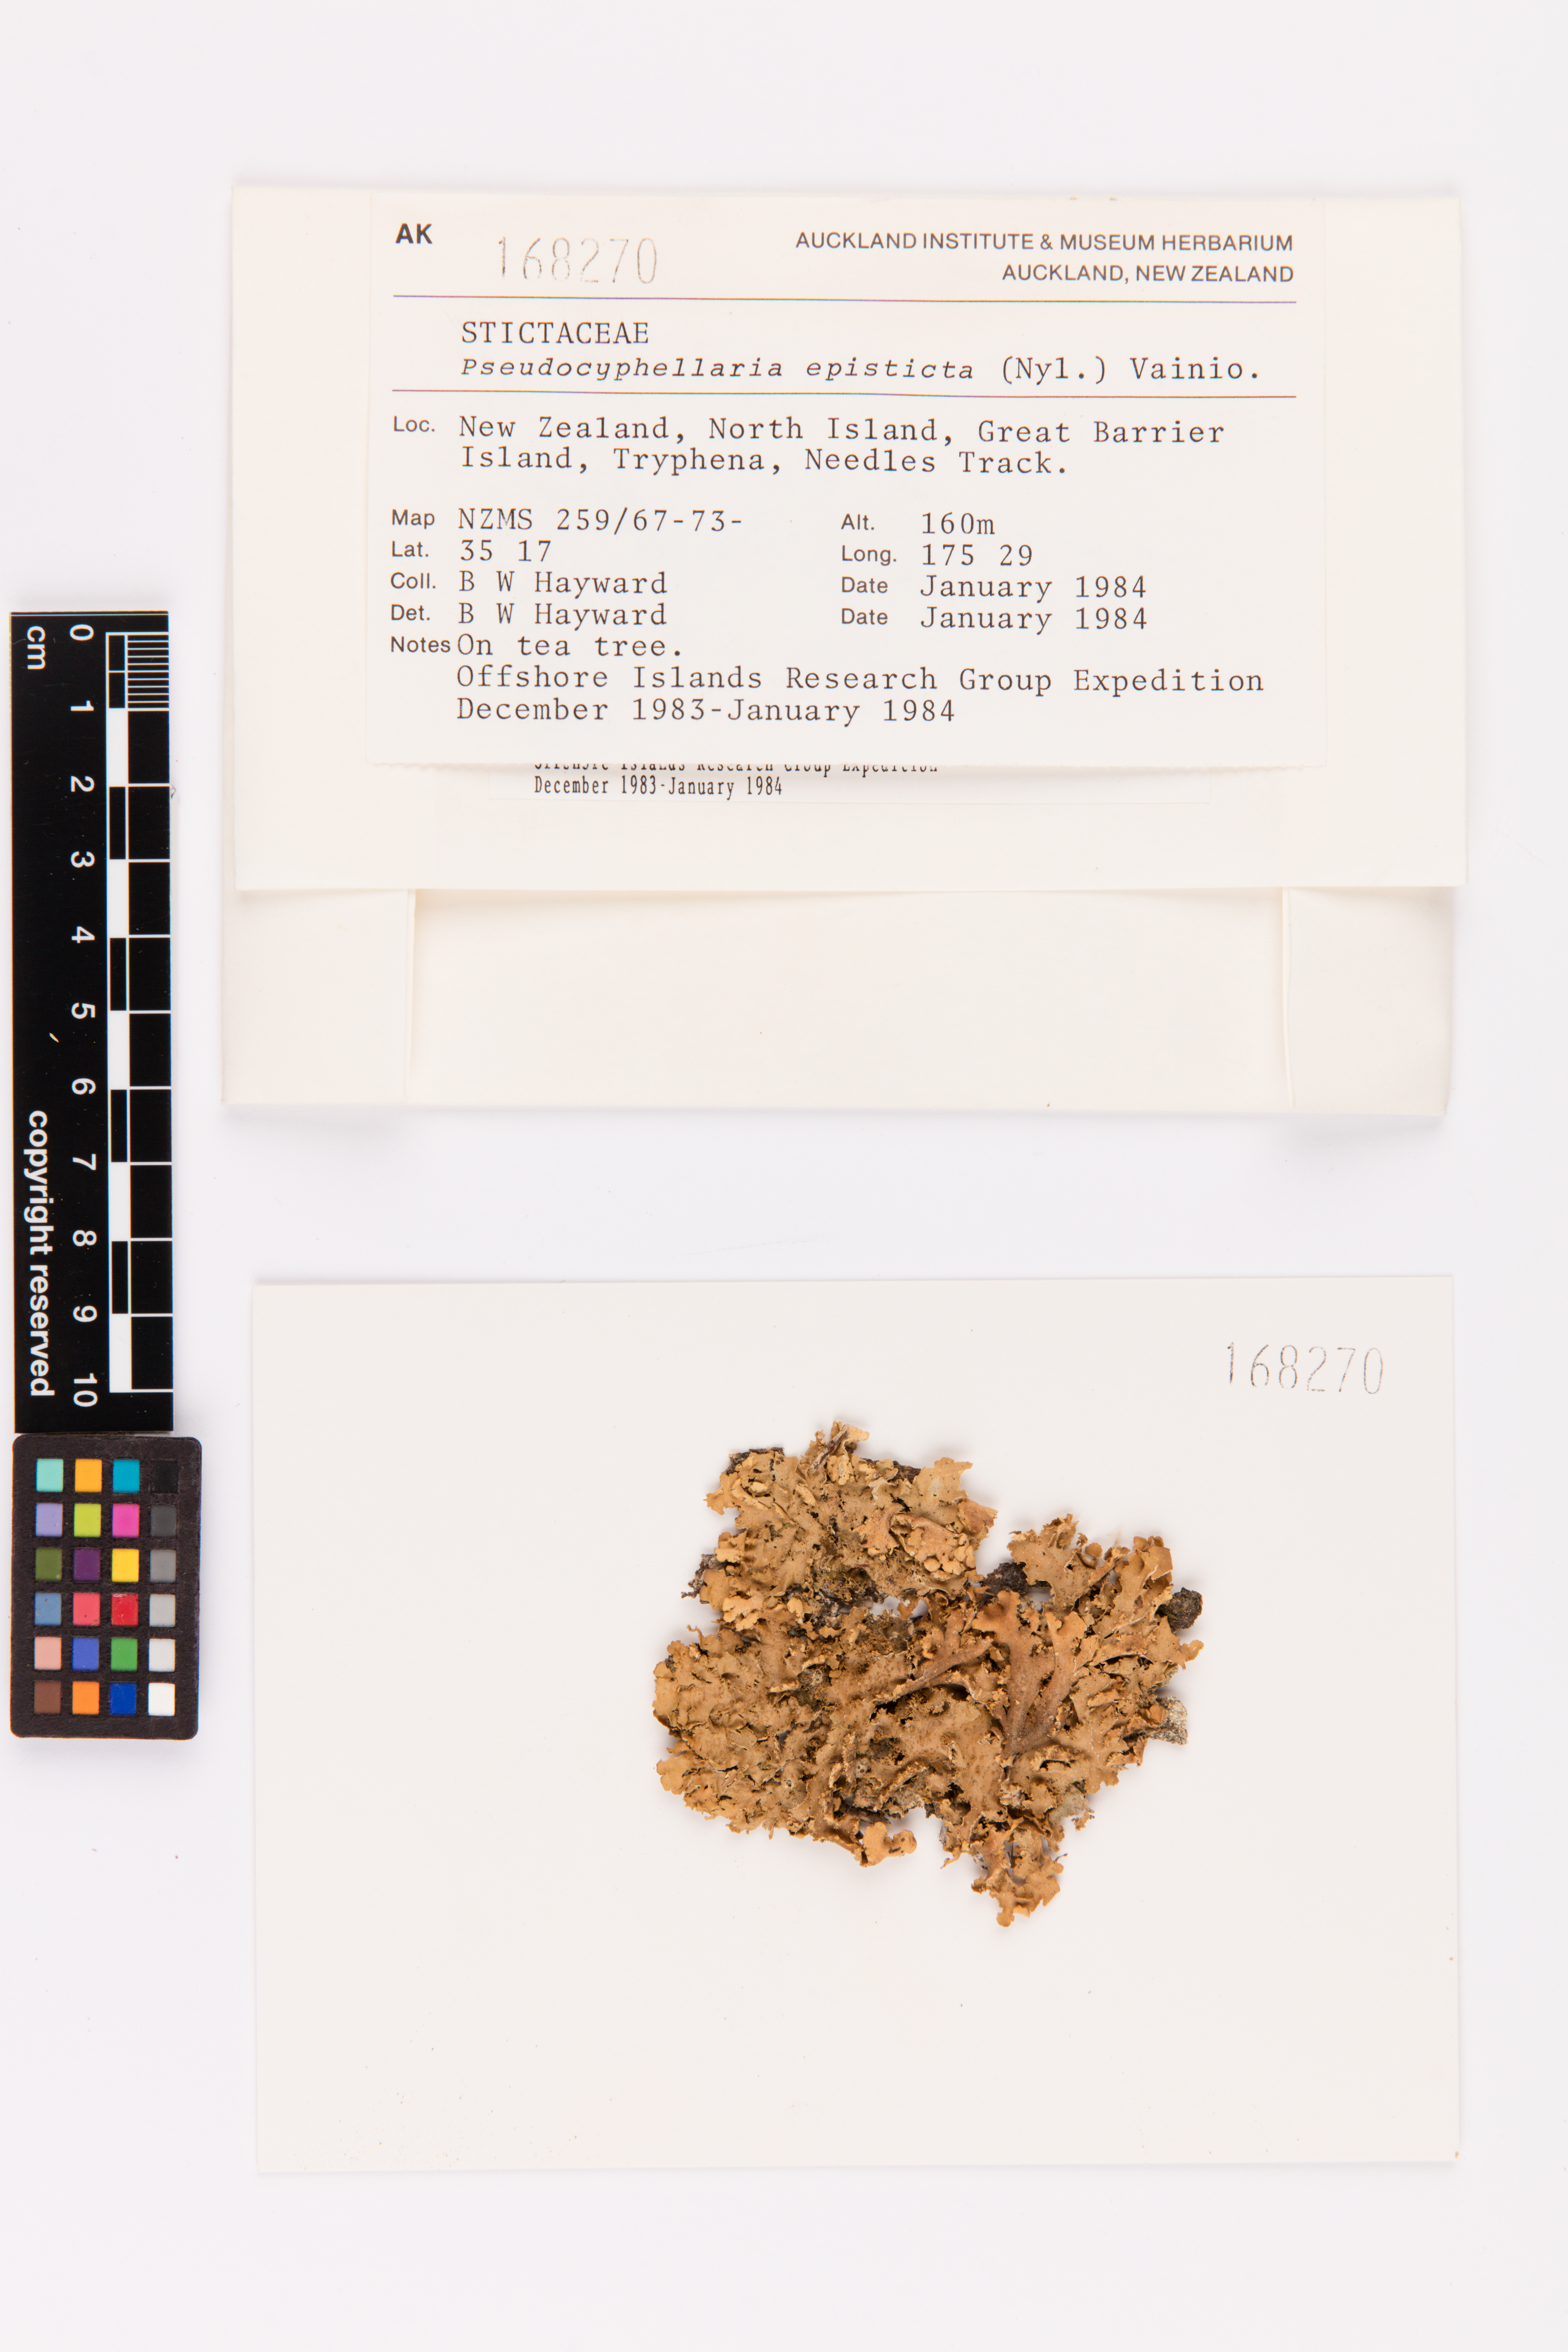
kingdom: Fungi
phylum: Ascomycota
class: Lecanoromycetes
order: Peltigerales
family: Lobariaceae
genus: Pseudocyphellaria
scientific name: Pseudocyphellaria episticta
